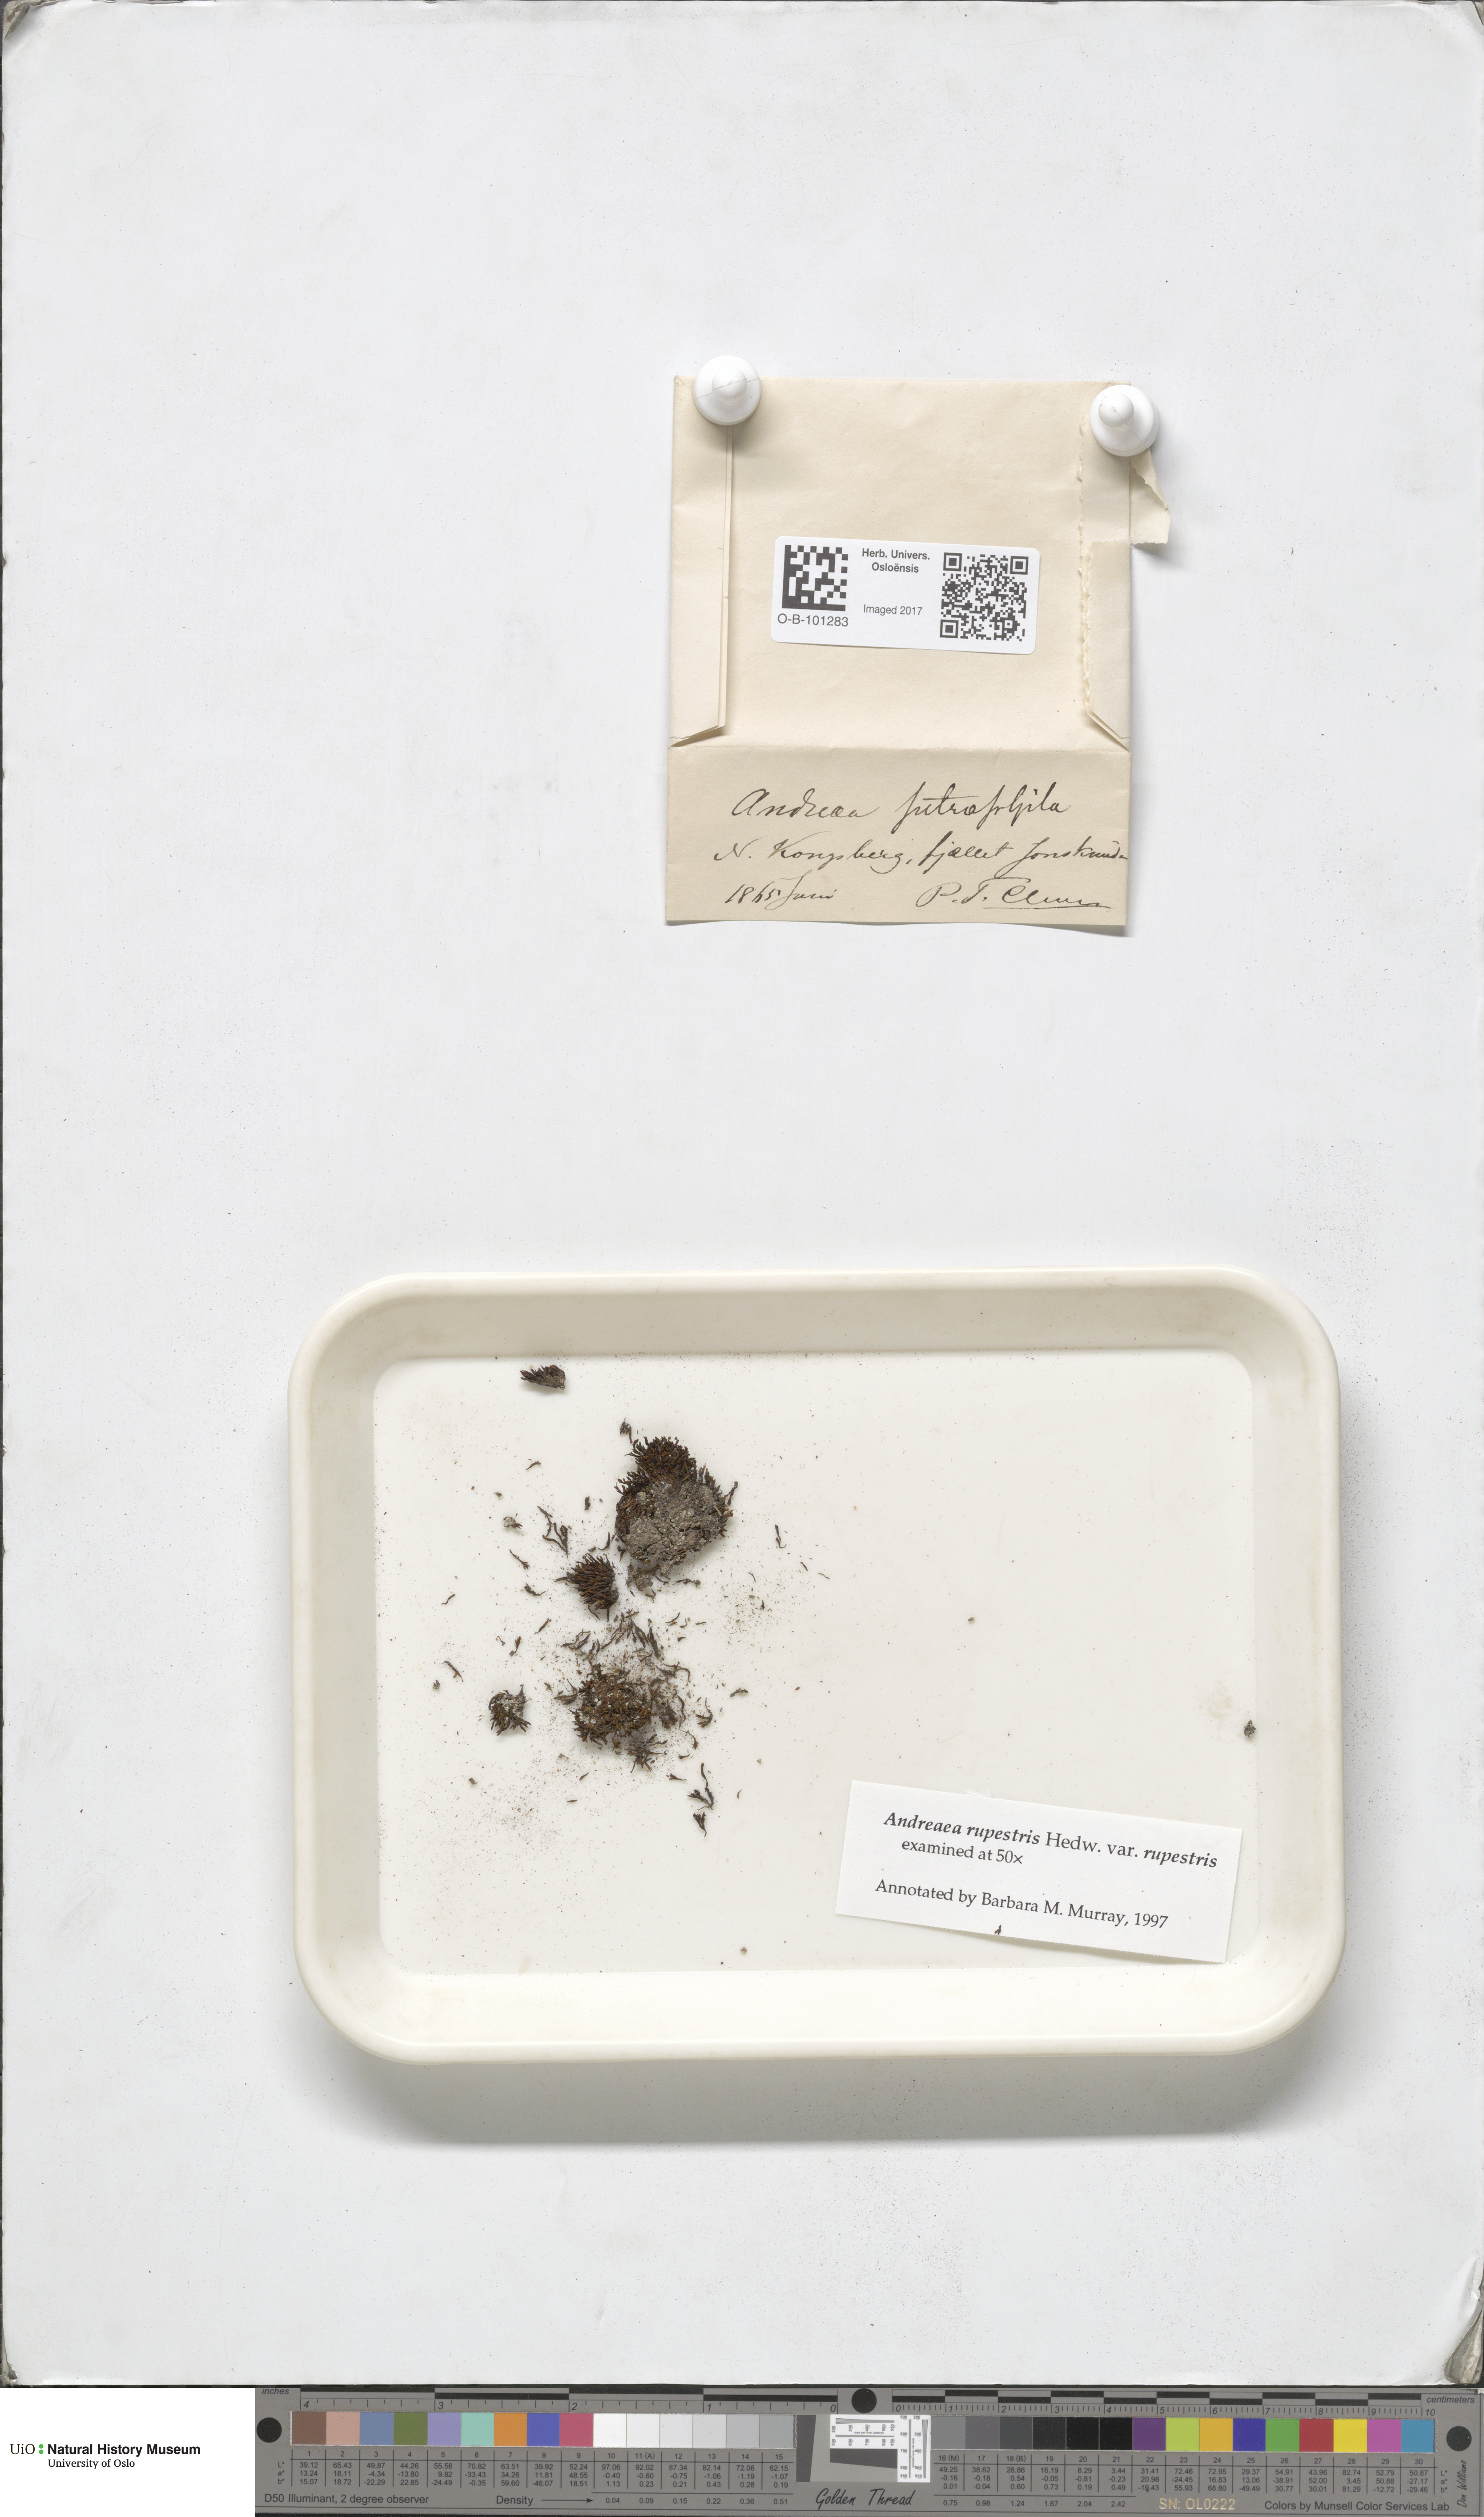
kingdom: Plantae
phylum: Bryophyta
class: Andreaeopsida
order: Andreaeales
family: Andreaeaceae
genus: Andreaea
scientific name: Andreaea rupestris
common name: Black rock moss
